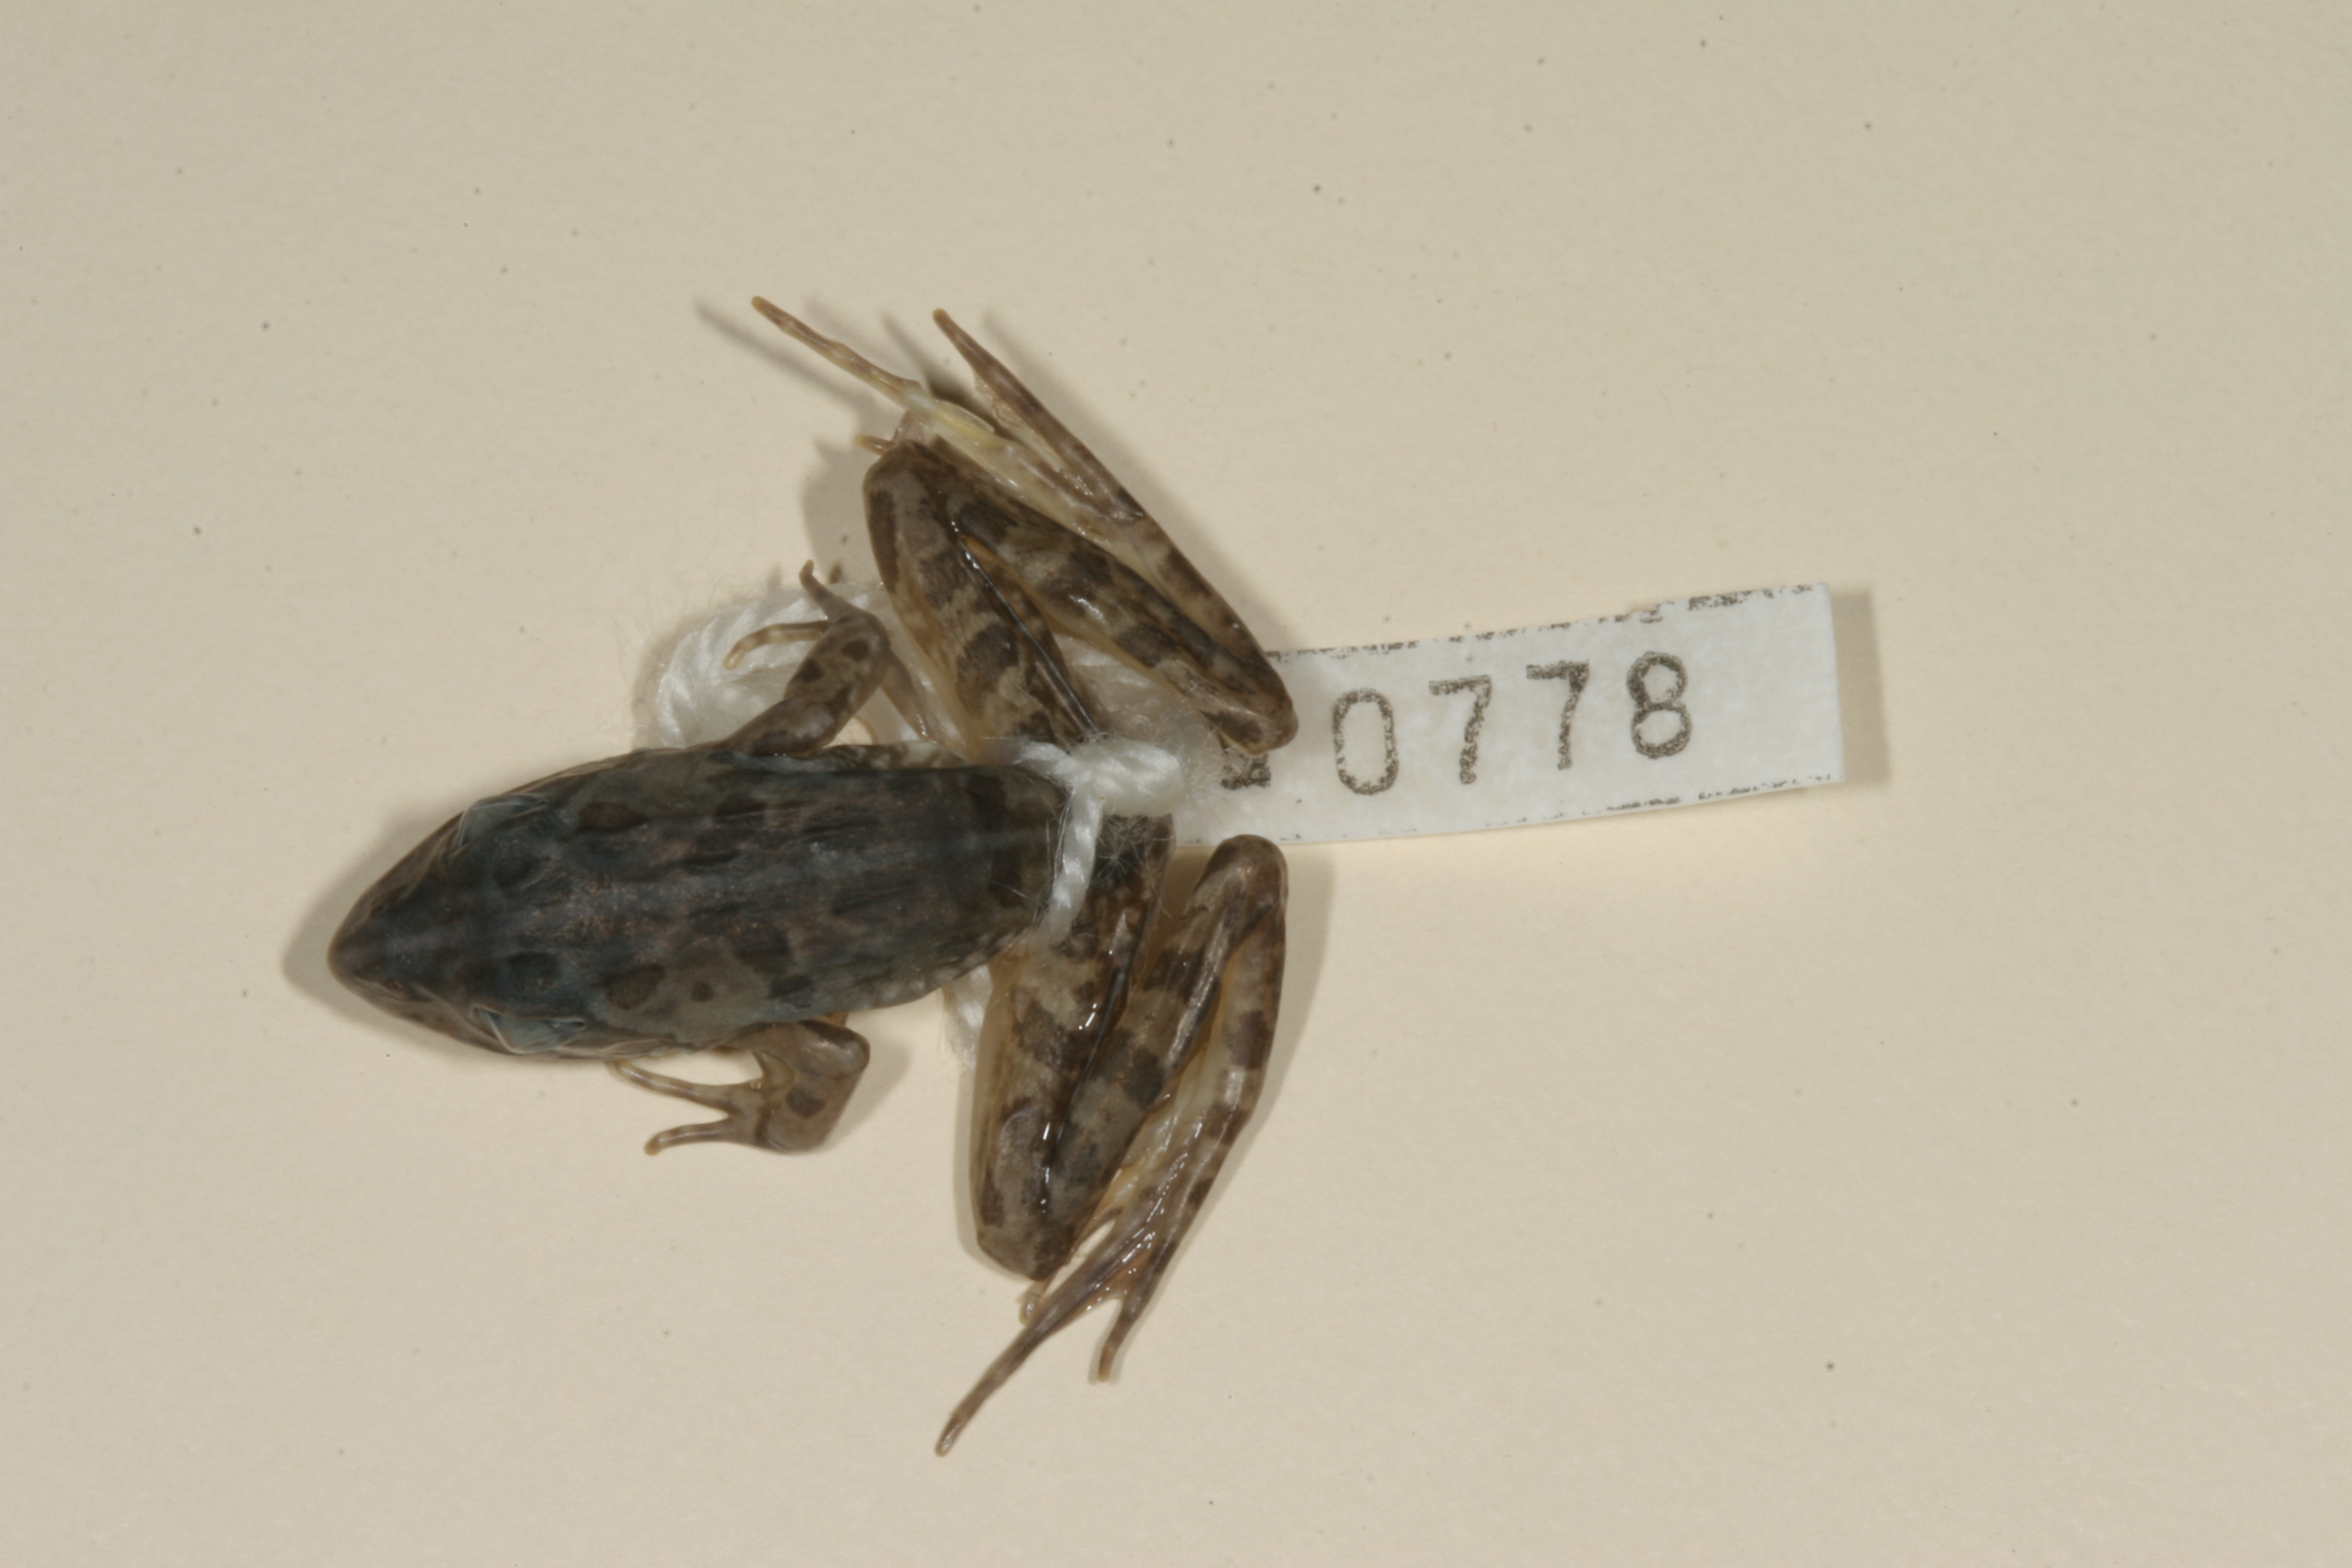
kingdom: Animalia
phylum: Chordata
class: Amphibia
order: Anura
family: Pyxicephalidae
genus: Amietia
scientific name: Amietia angolensis
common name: Dusky-throated frog
